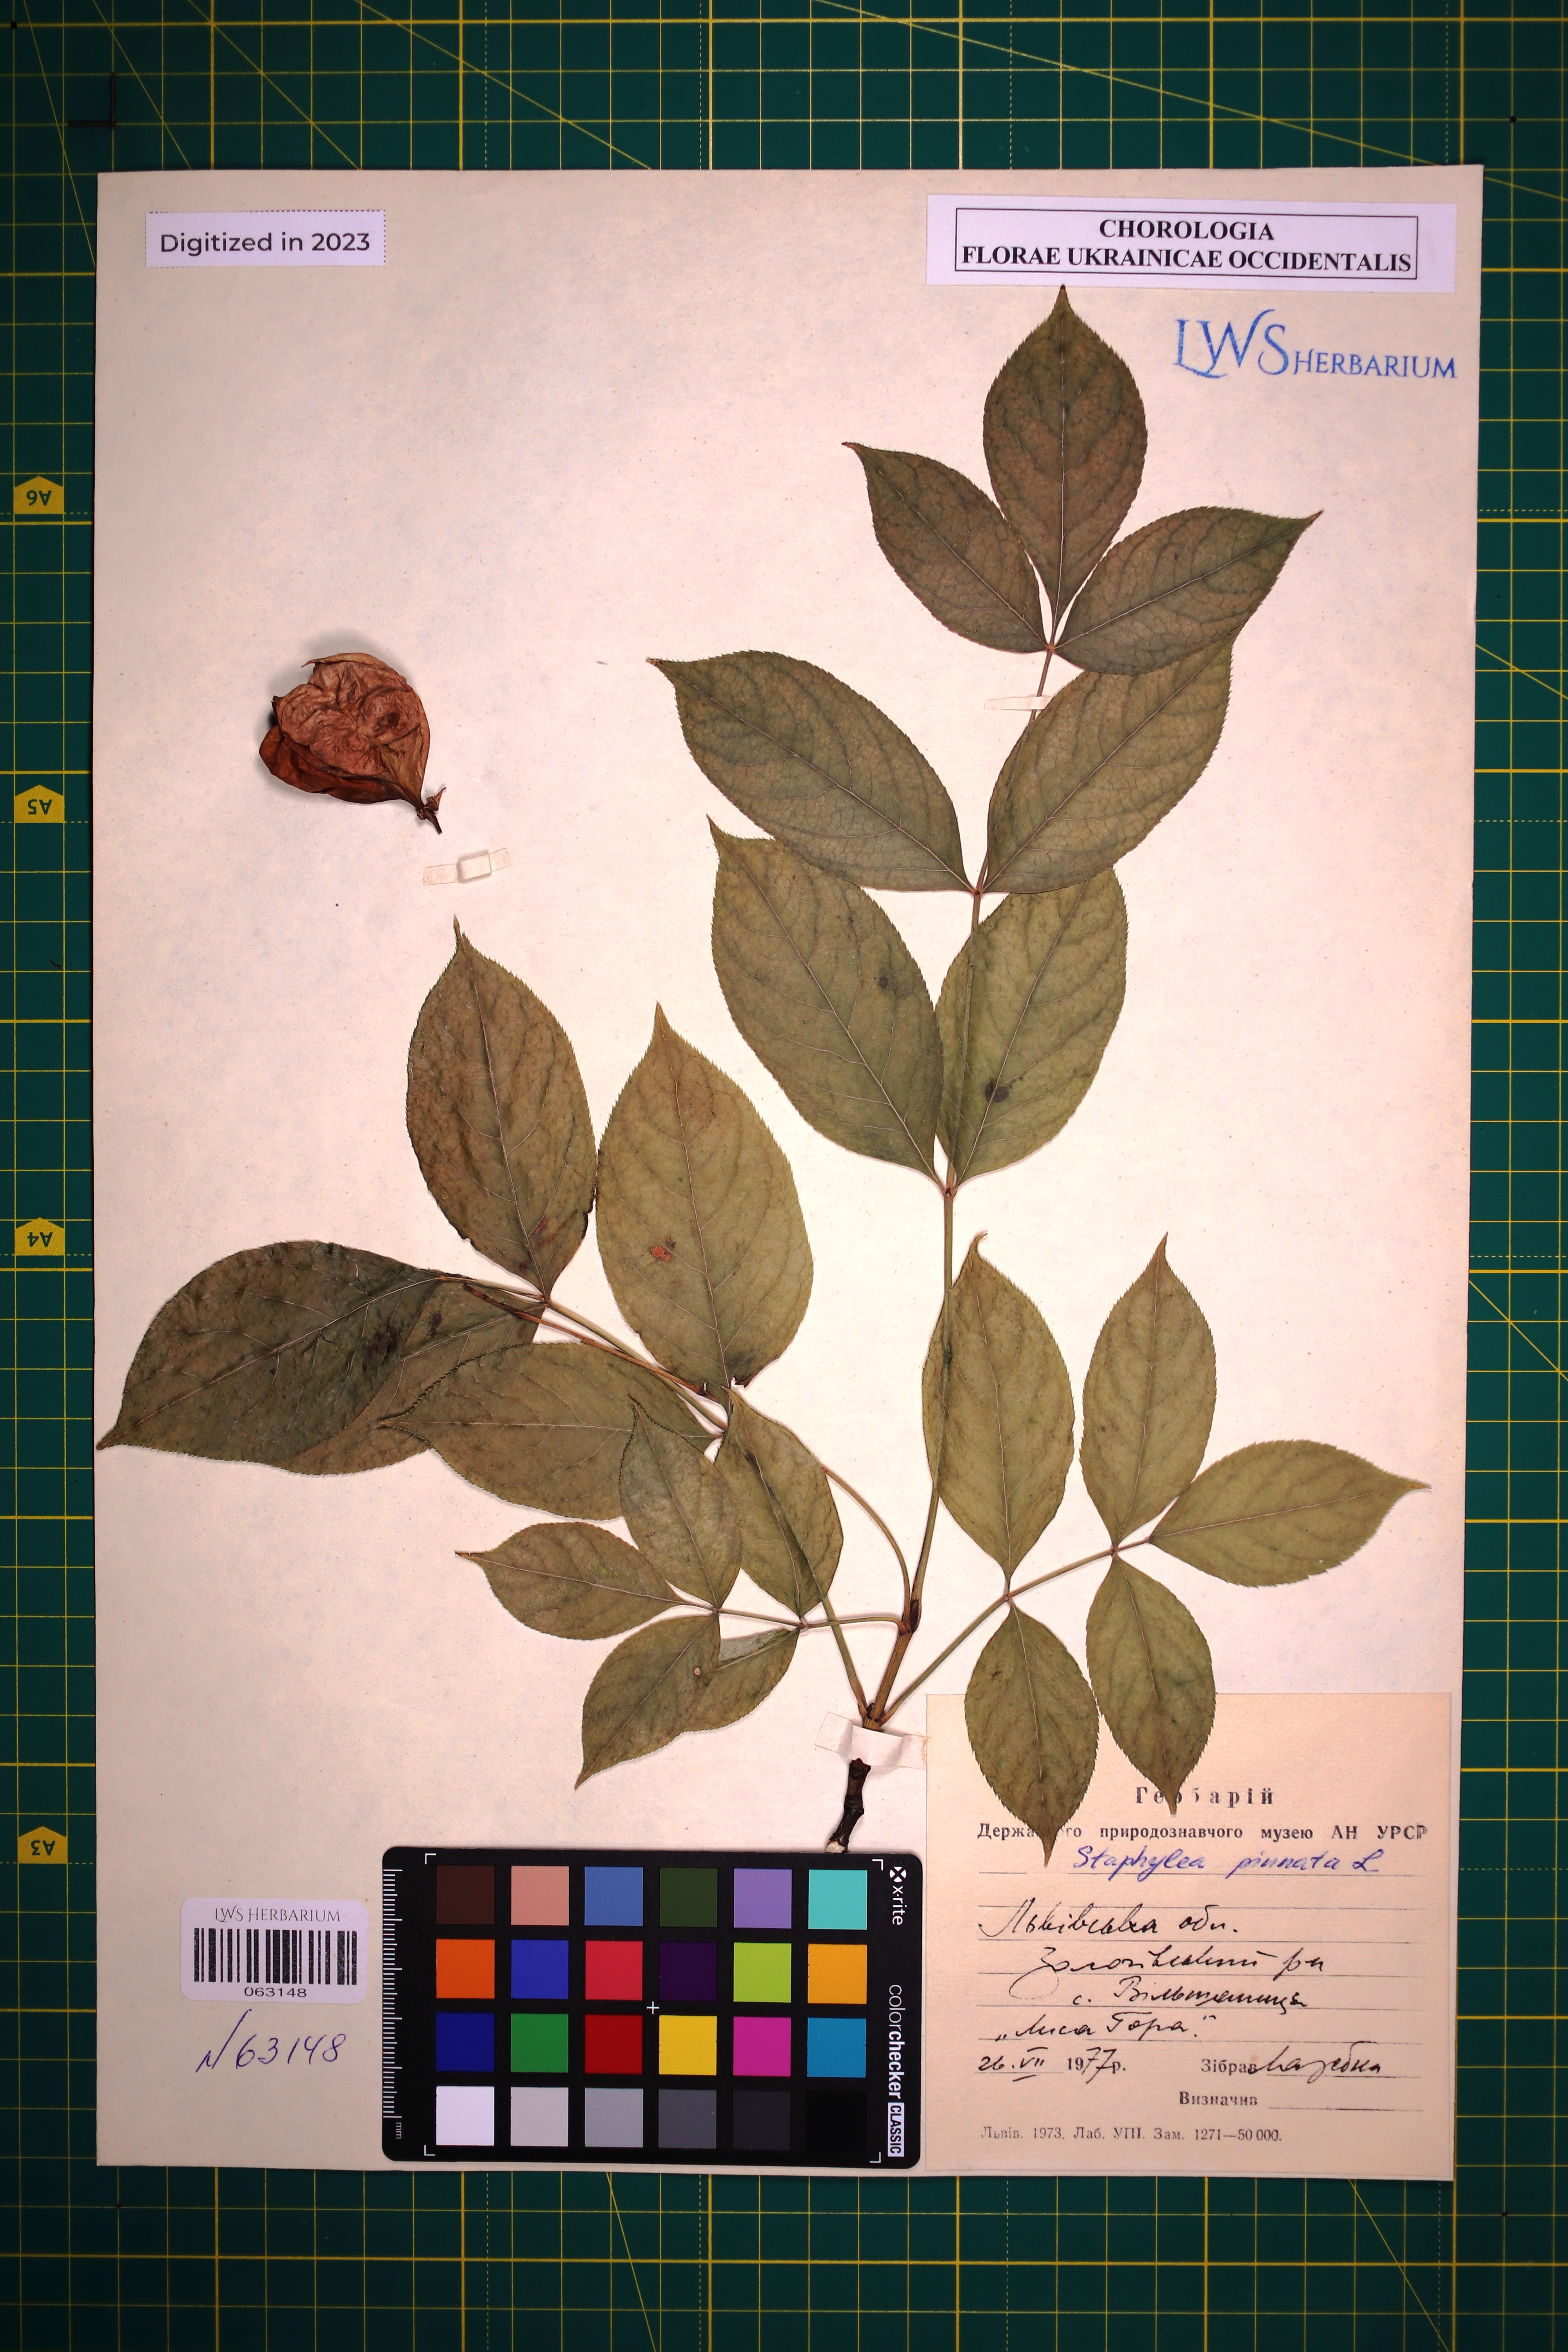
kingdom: Plantae
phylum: Tracheophyta
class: Magnoliopsida
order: Crossosomatales
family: Staphyleaceae
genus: Staphylea
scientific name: Staphylea pinnata
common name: Bladdernut
